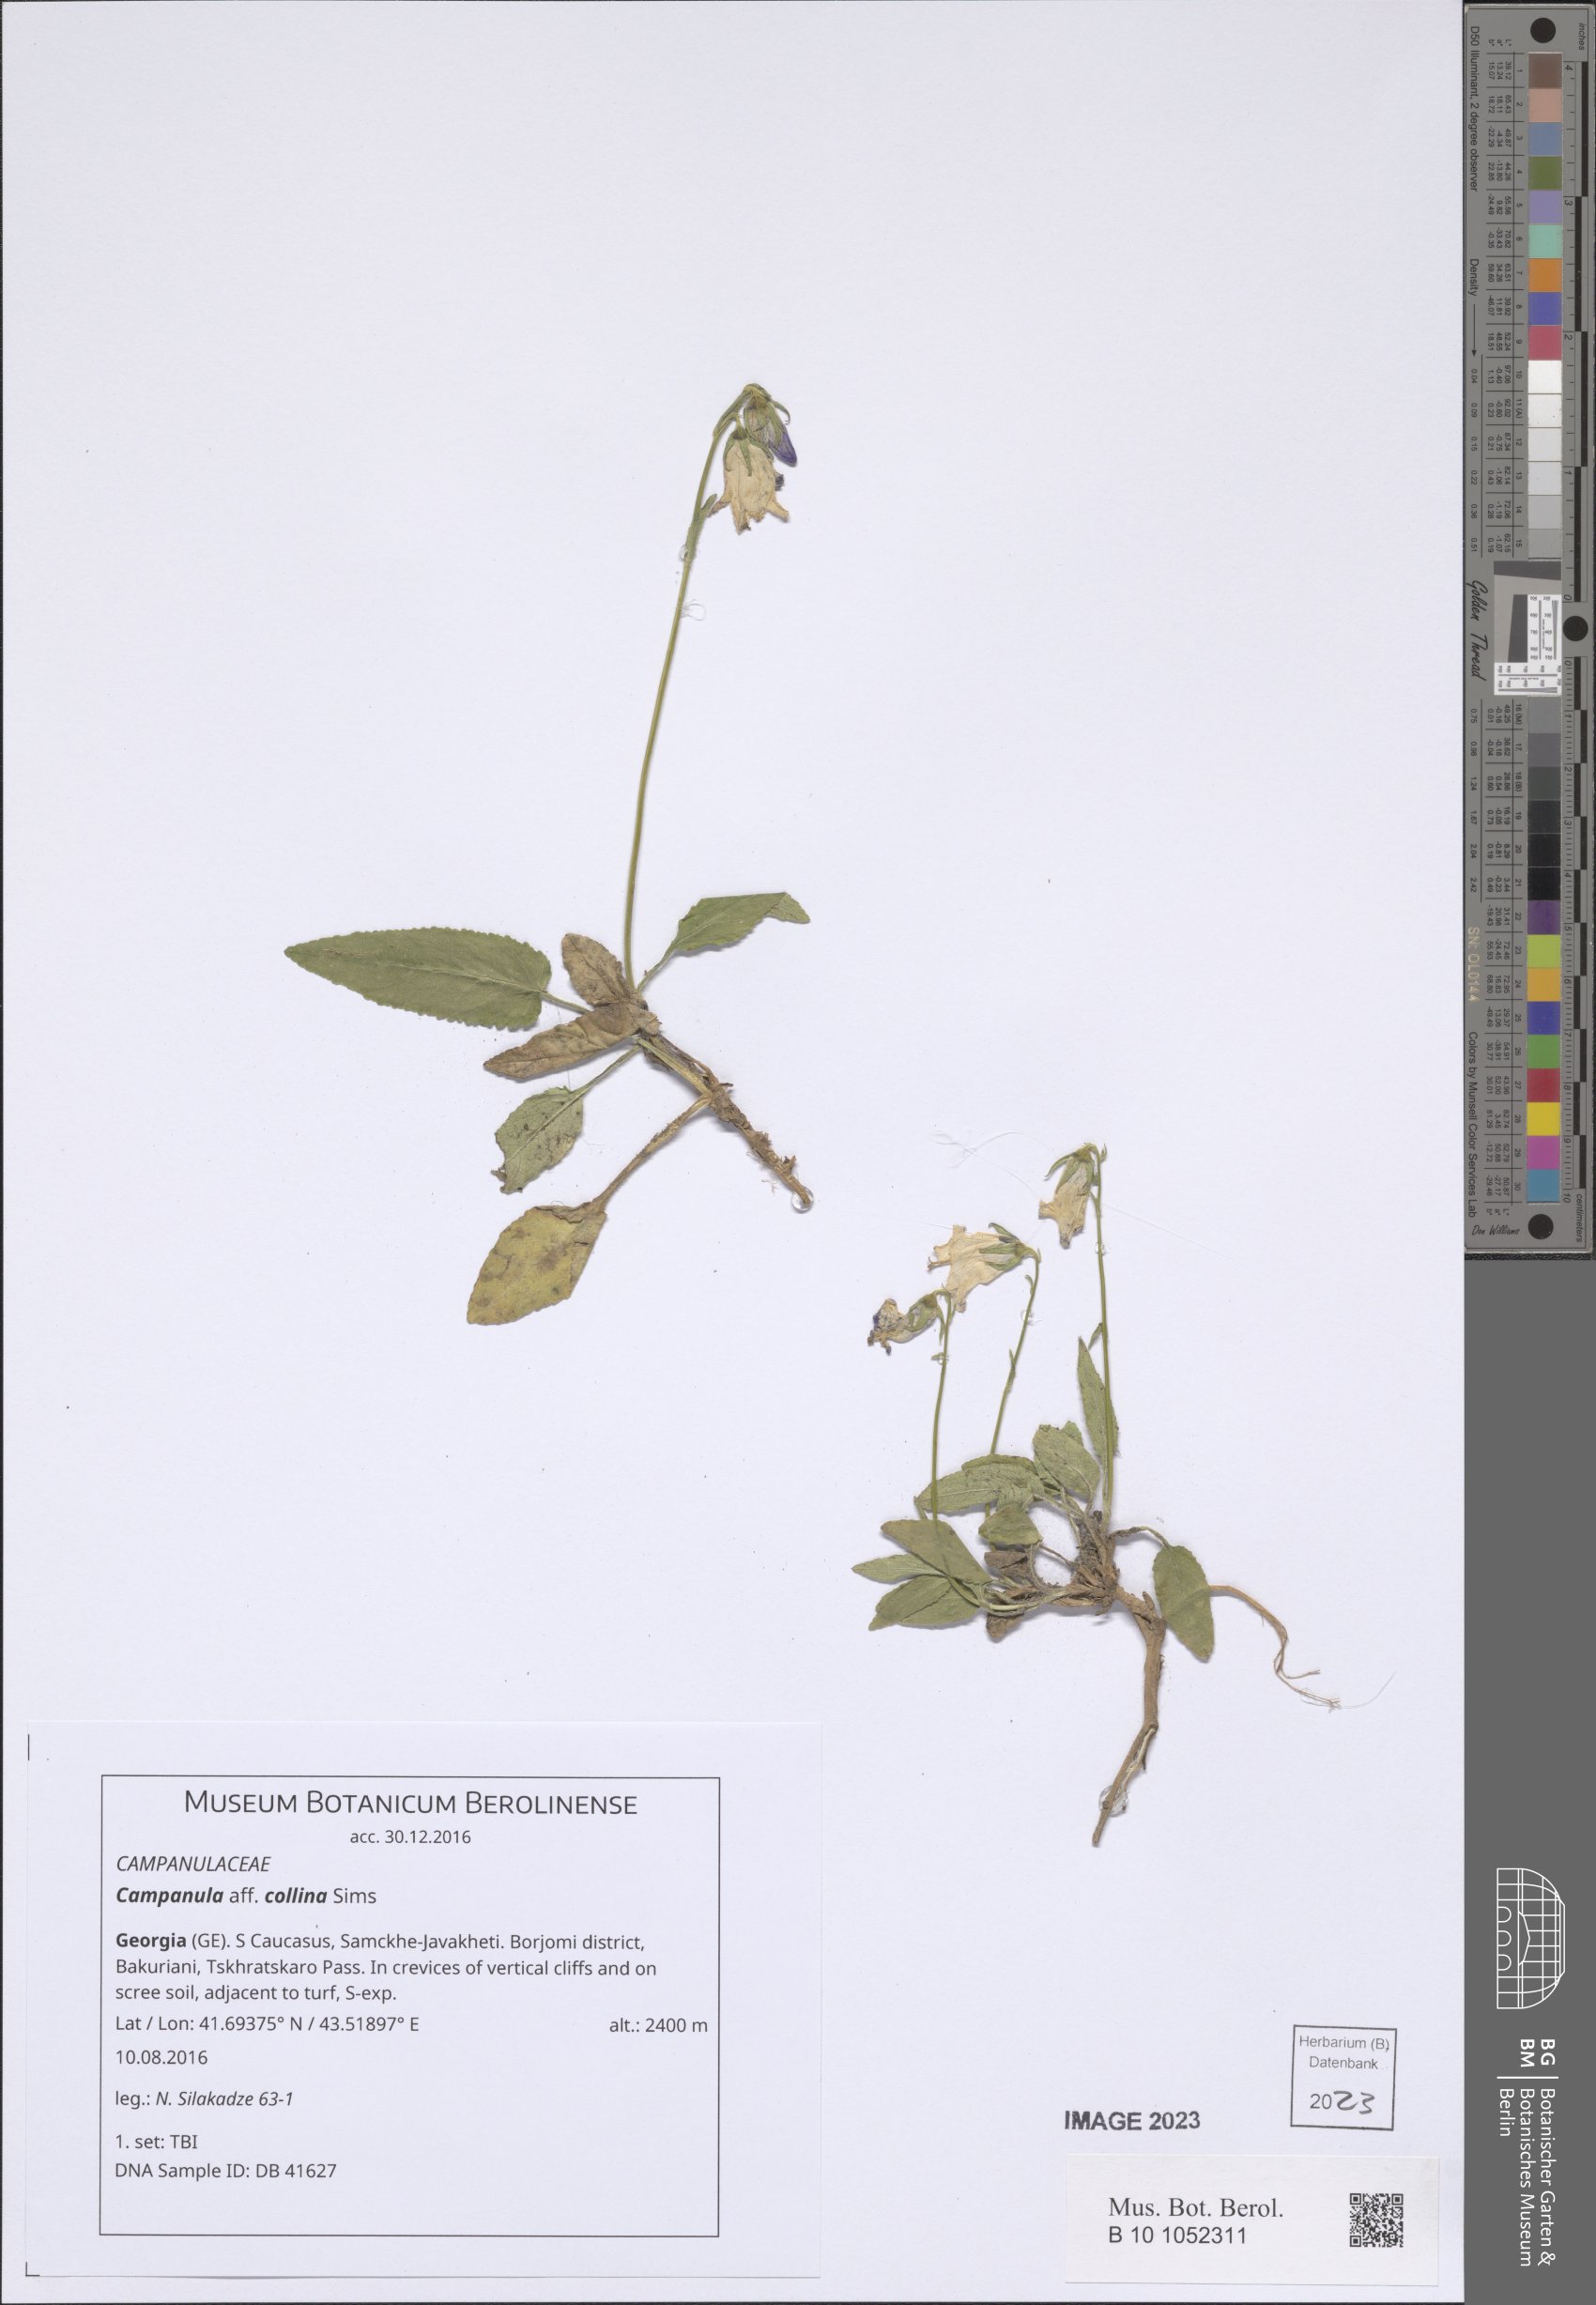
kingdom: Plantae
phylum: Tracheophyta
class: Magnoliopsida
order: Asterales
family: Campanulaceae
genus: Campanula
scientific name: Campanula collina
